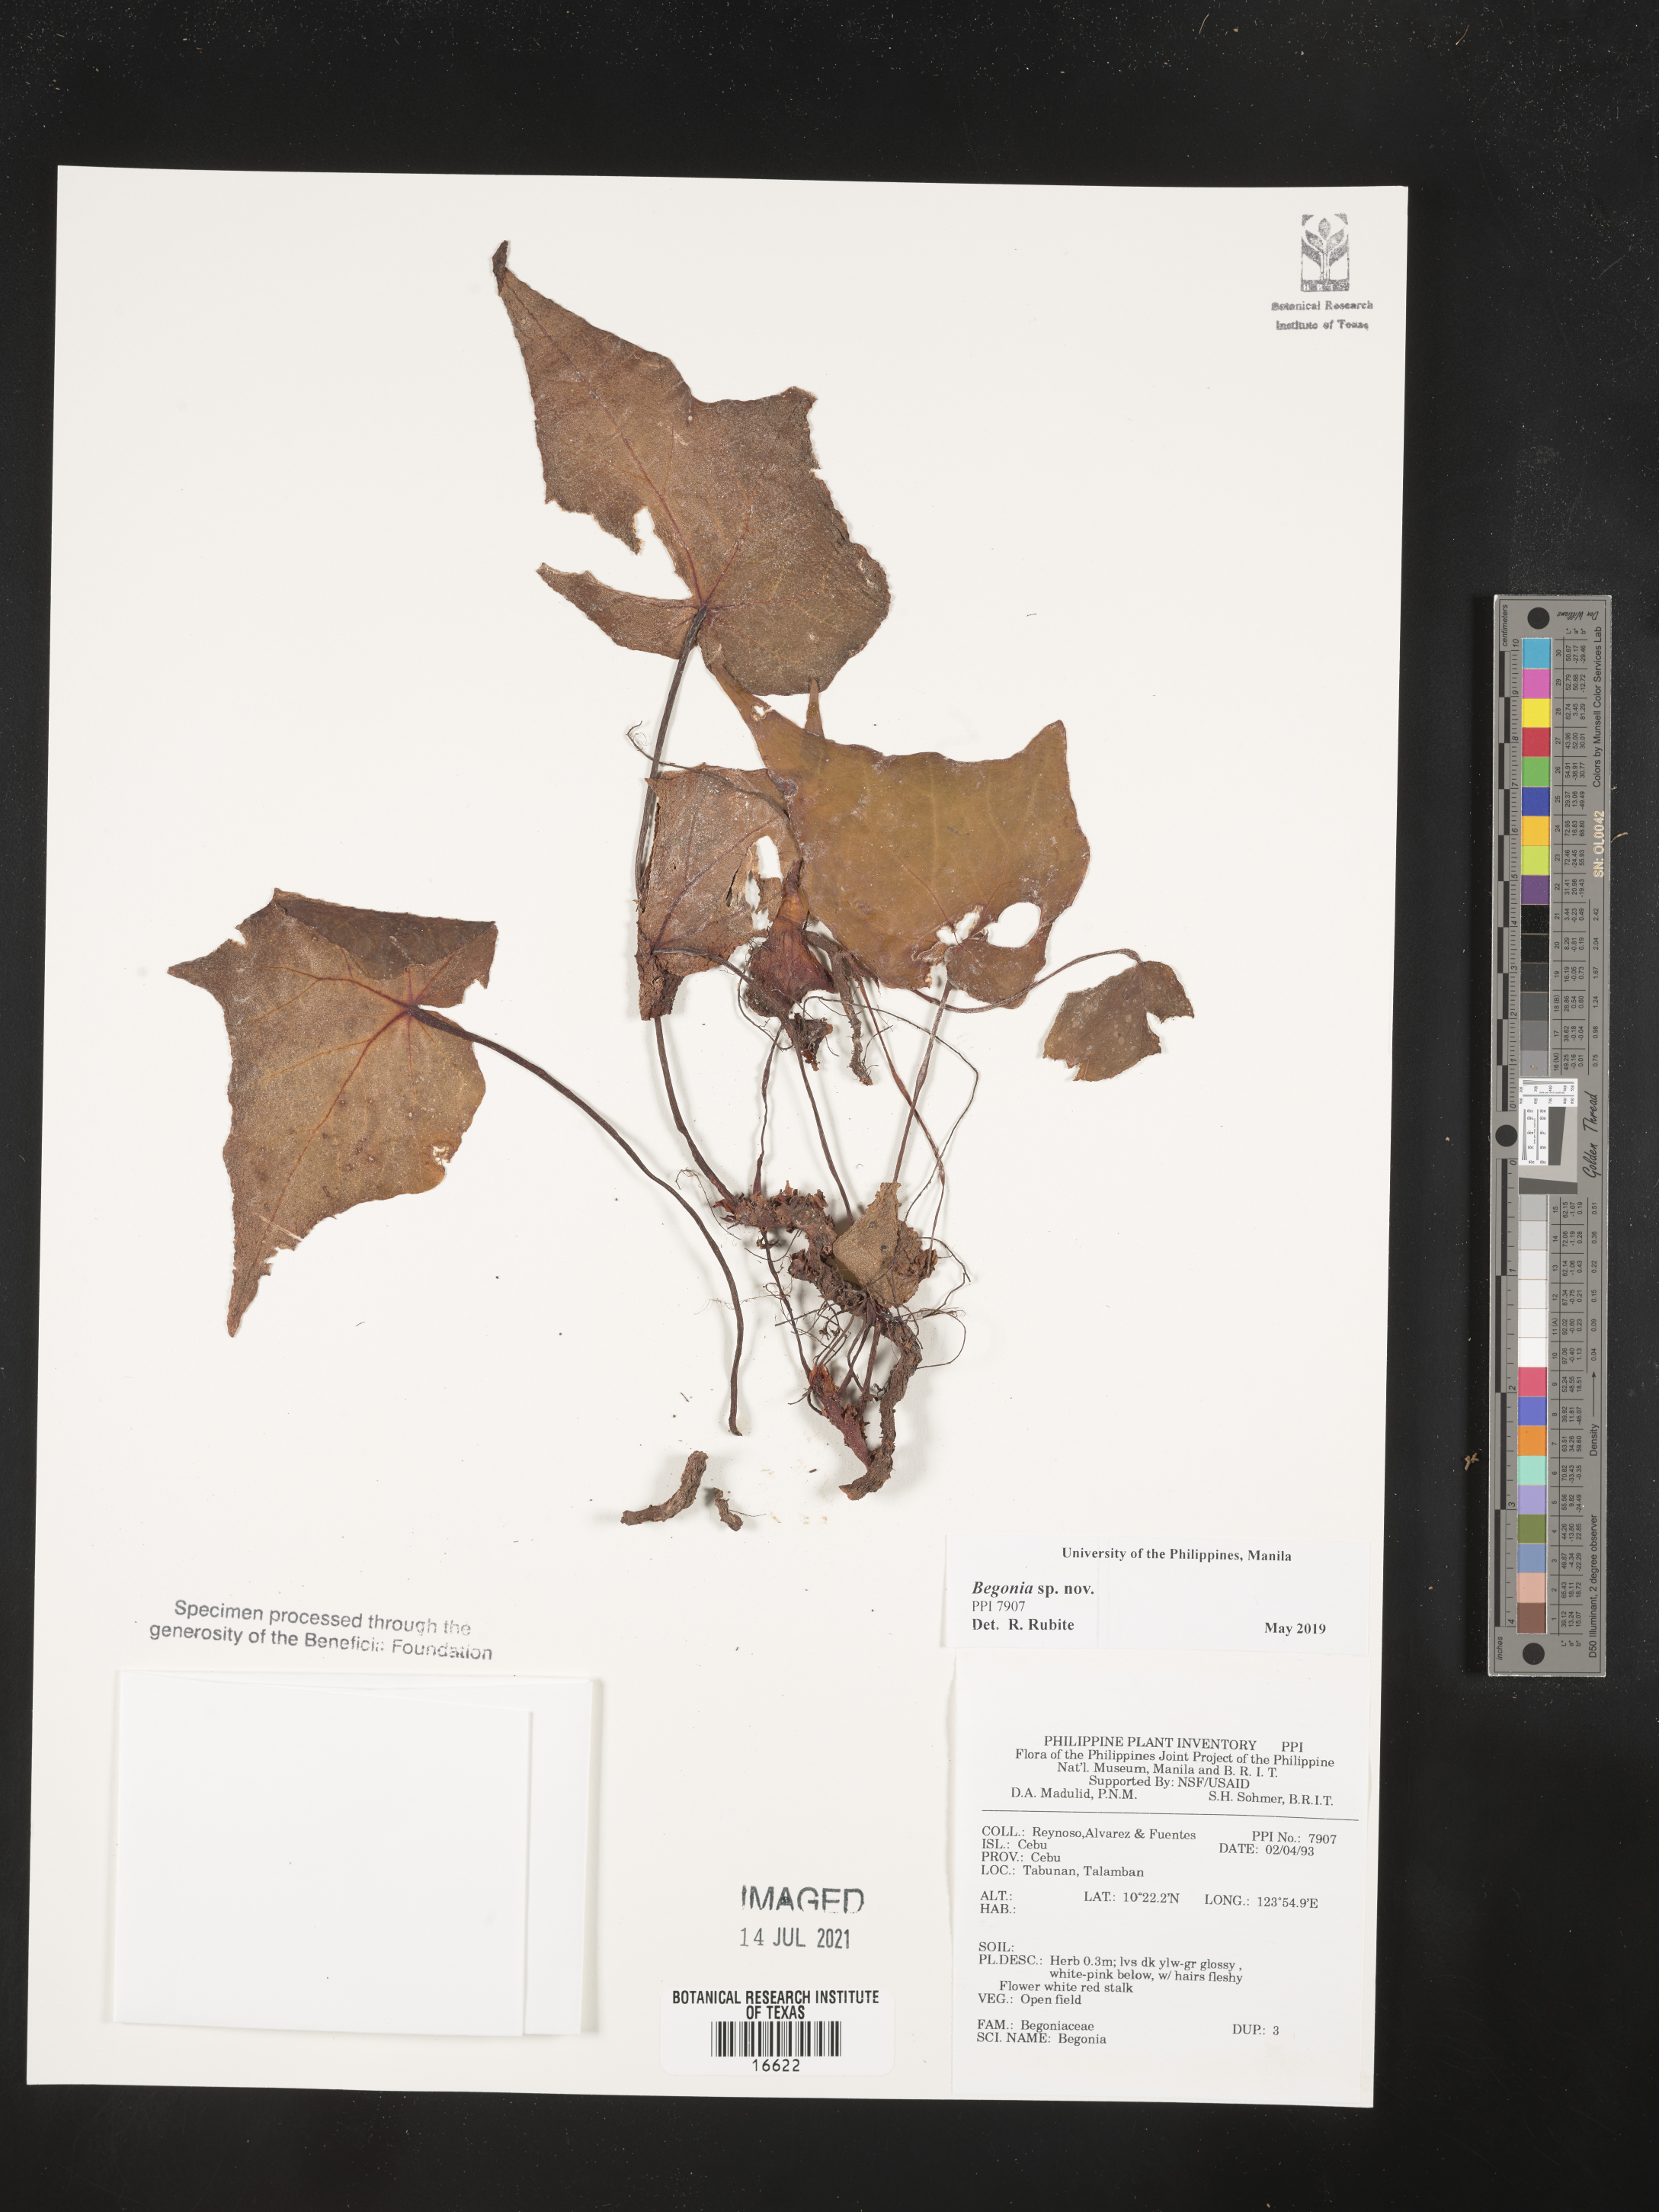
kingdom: Plantae
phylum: Tracheophyta
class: Magnoliopsida
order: Cucurbitales
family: Begoniaceae
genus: Begonia
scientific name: Begonia
